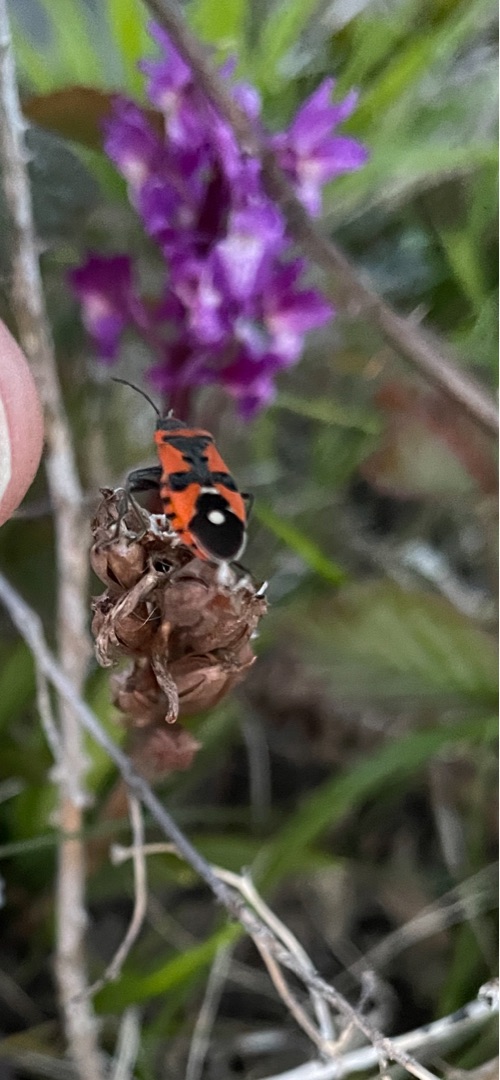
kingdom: Animalia
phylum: Arthropoda
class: Insecta
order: Hemiptera
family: Lygaeidae
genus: Lygaeus
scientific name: Lygaeus equestris
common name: Soldatertæge
